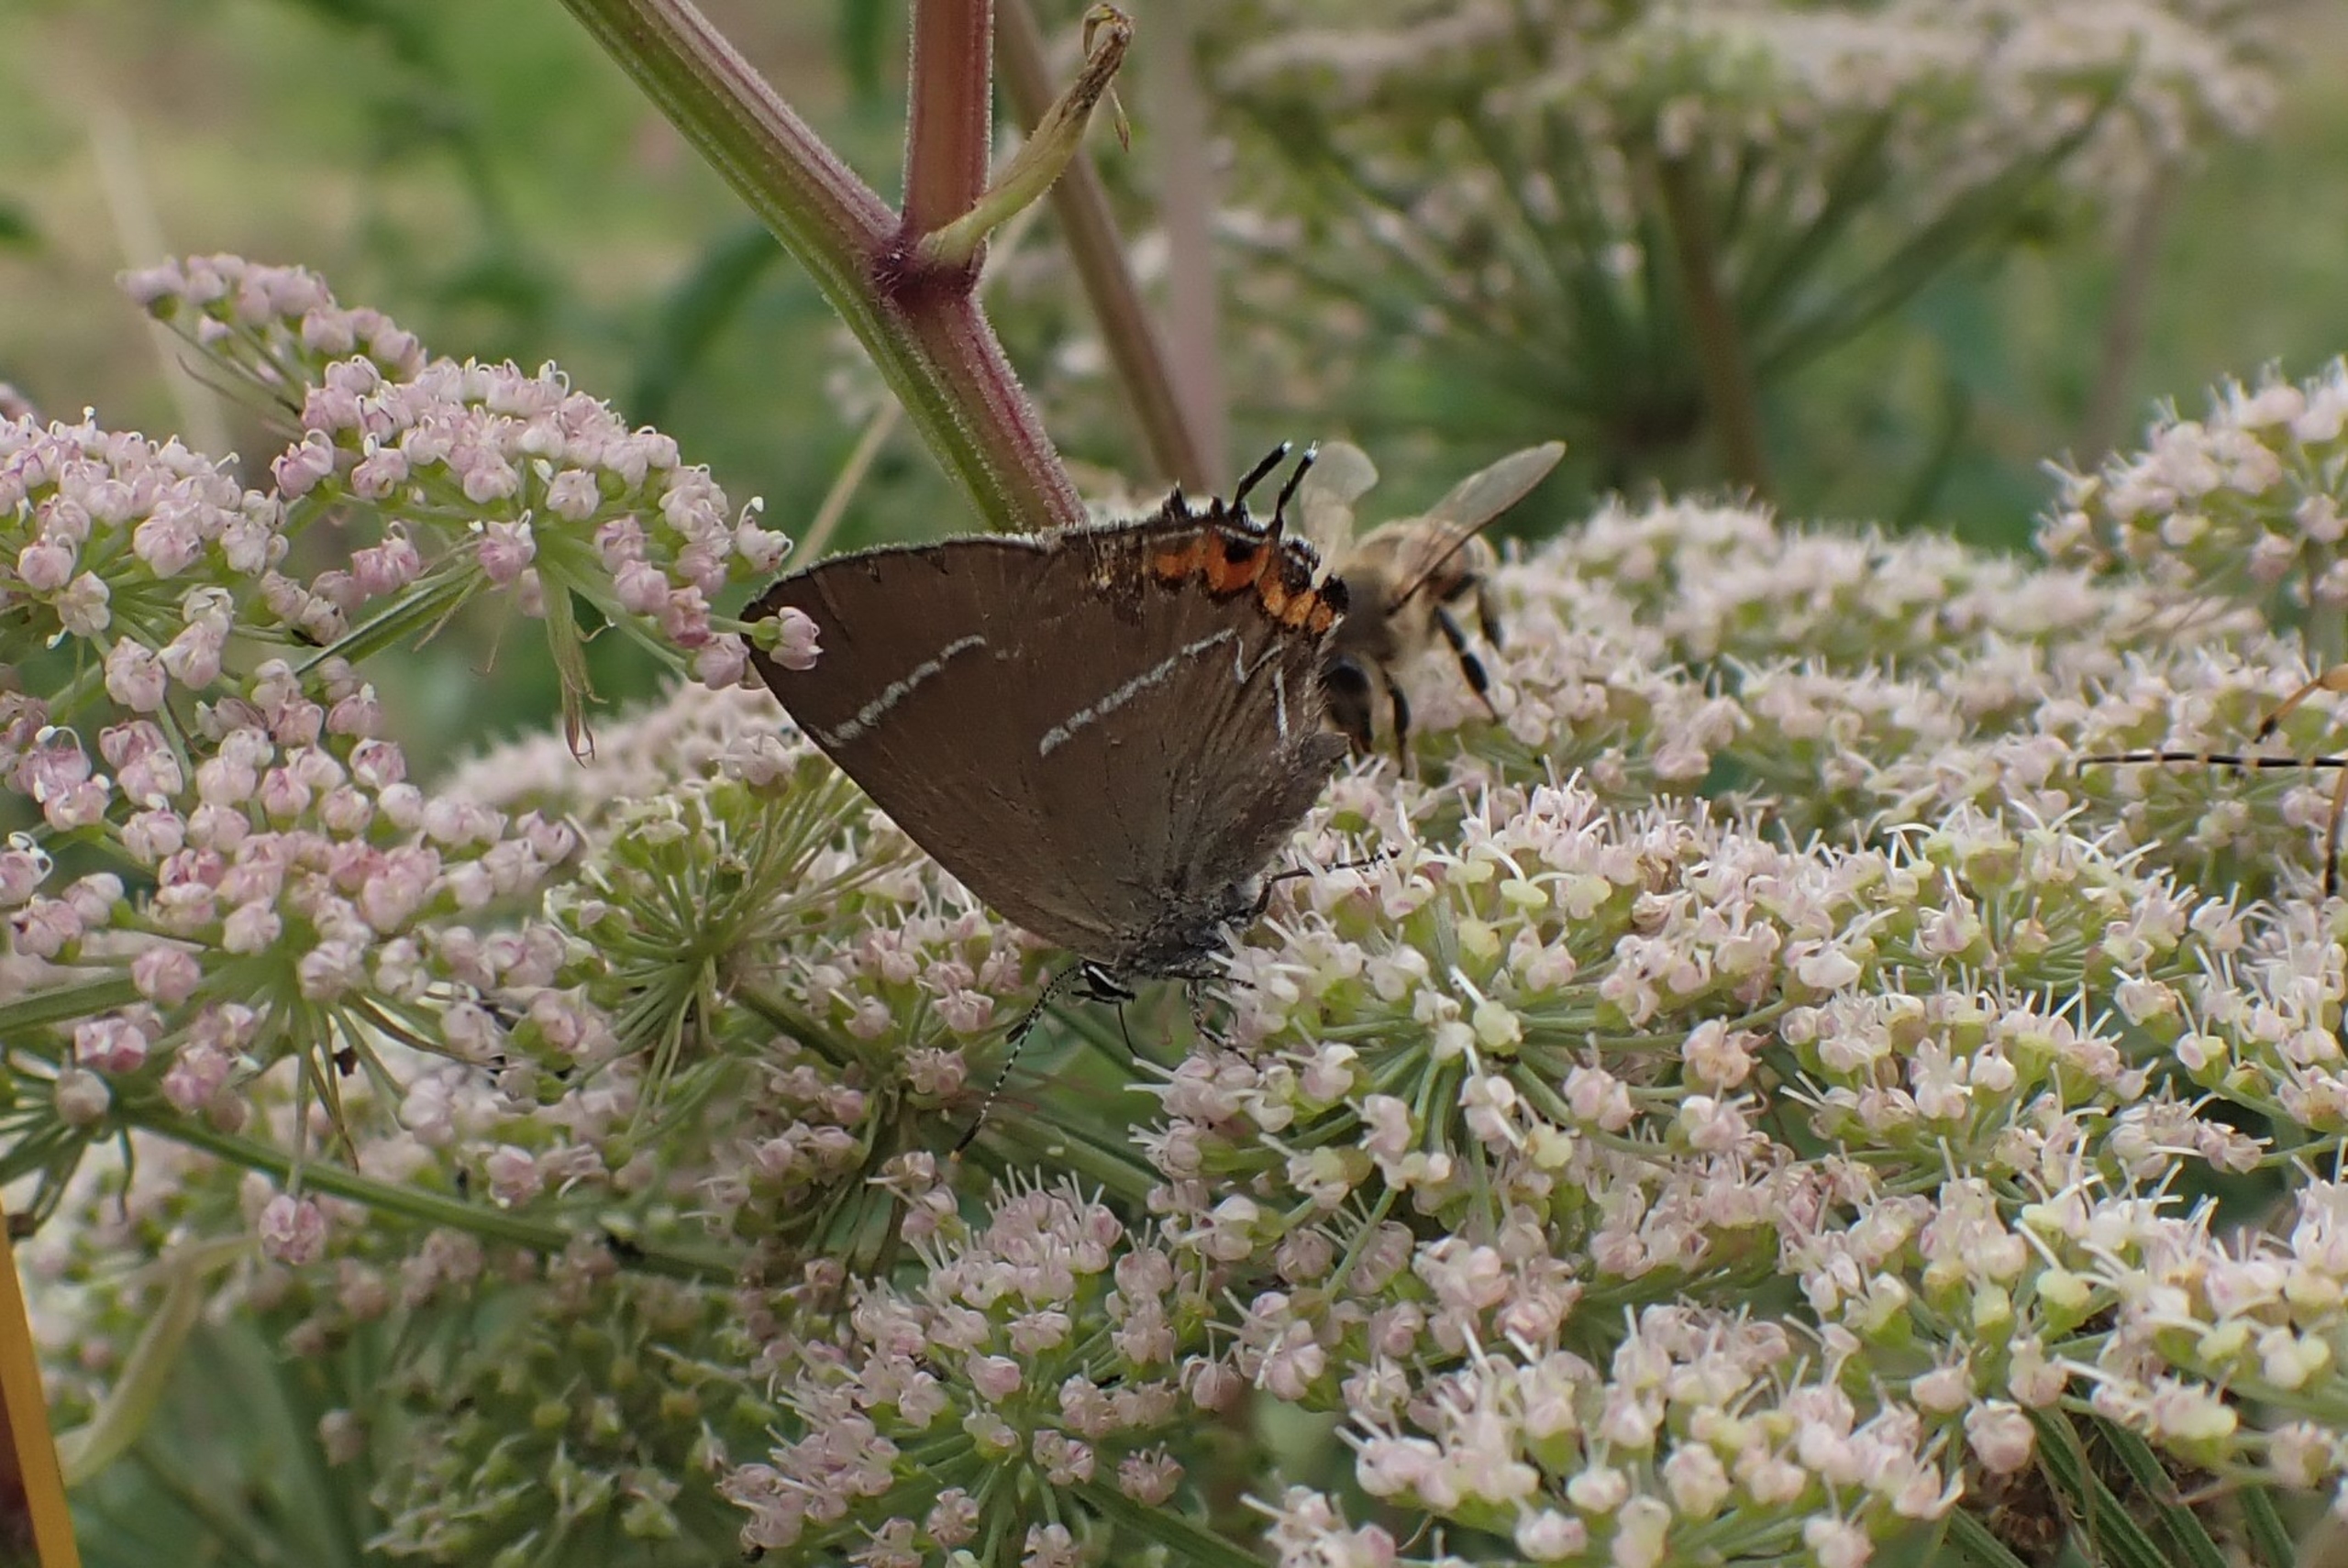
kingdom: Animalia
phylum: Arthropoda
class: Insecta
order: Lepidoptera
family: Lycaenidae
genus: Satyrium
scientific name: Satyrium w-album
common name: Det hvide W
